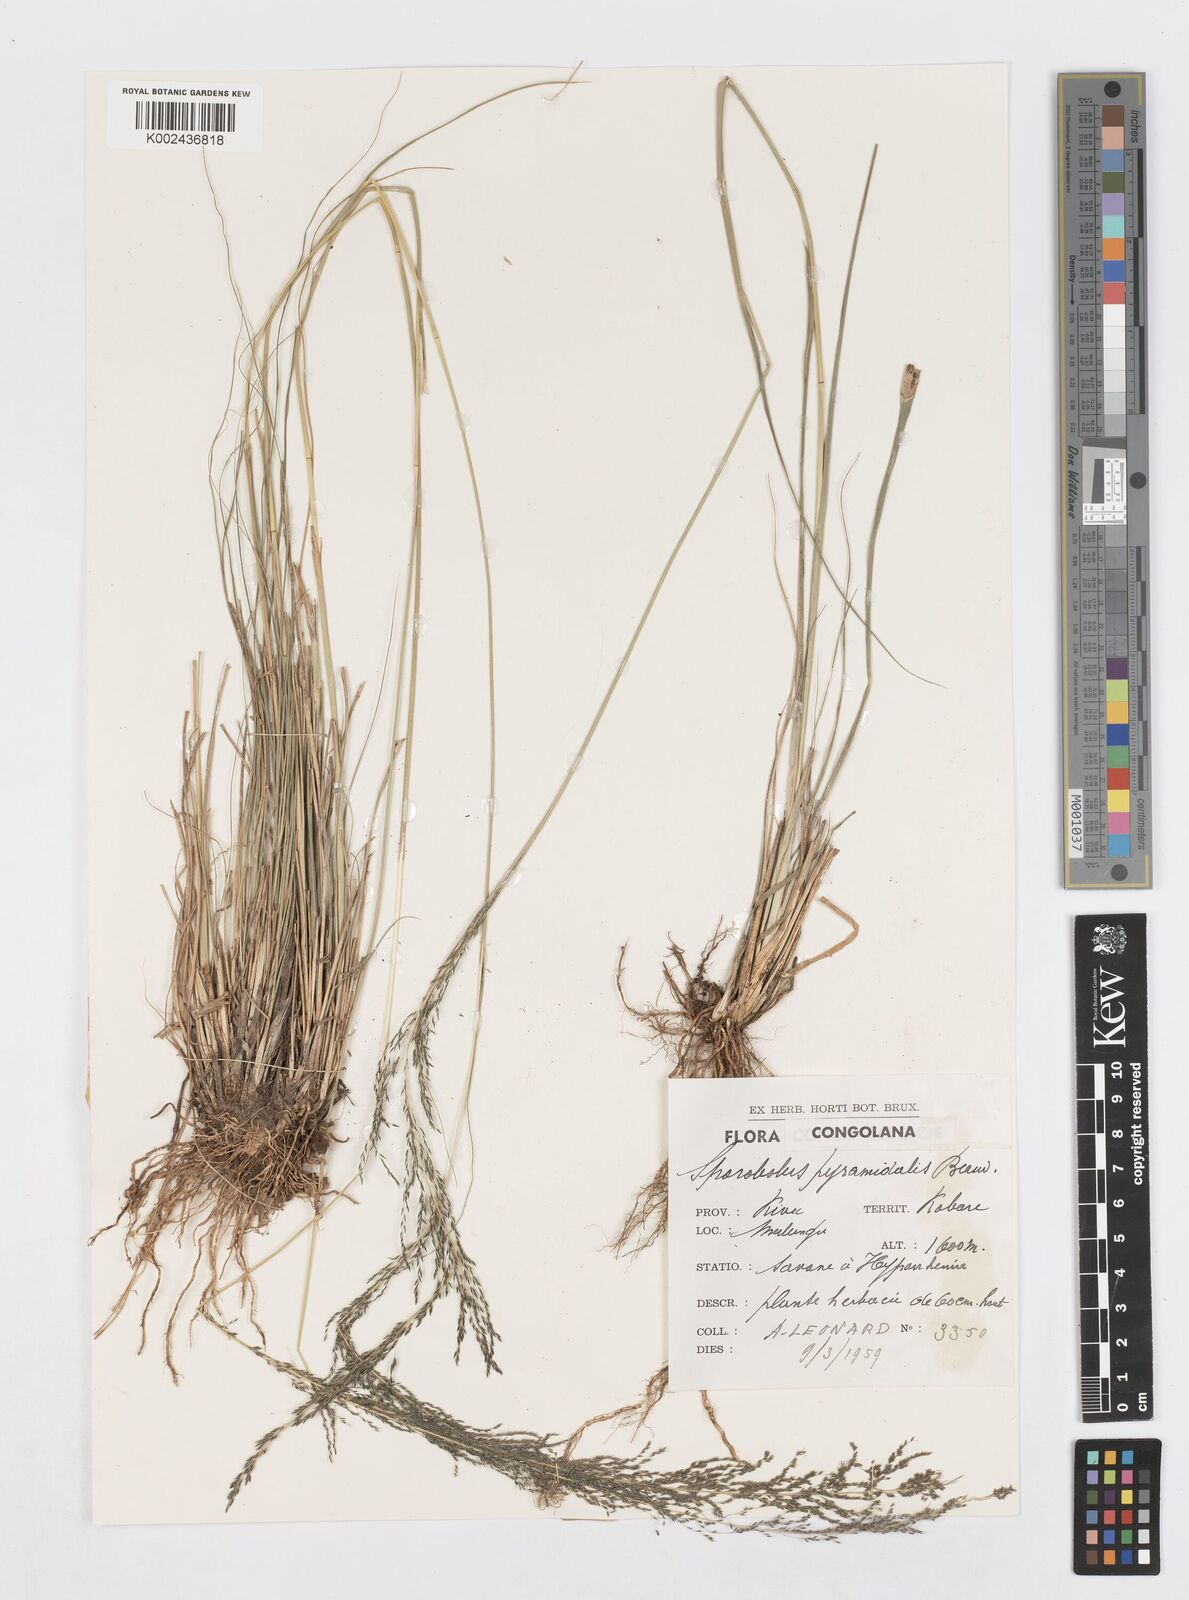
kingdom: Plantae
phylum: Tracheophyta
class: Liliopsida
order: Poales
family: Poaceae
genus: Sporobolus
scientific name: Sporobolus pyramidalis
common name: West indian dropseed
